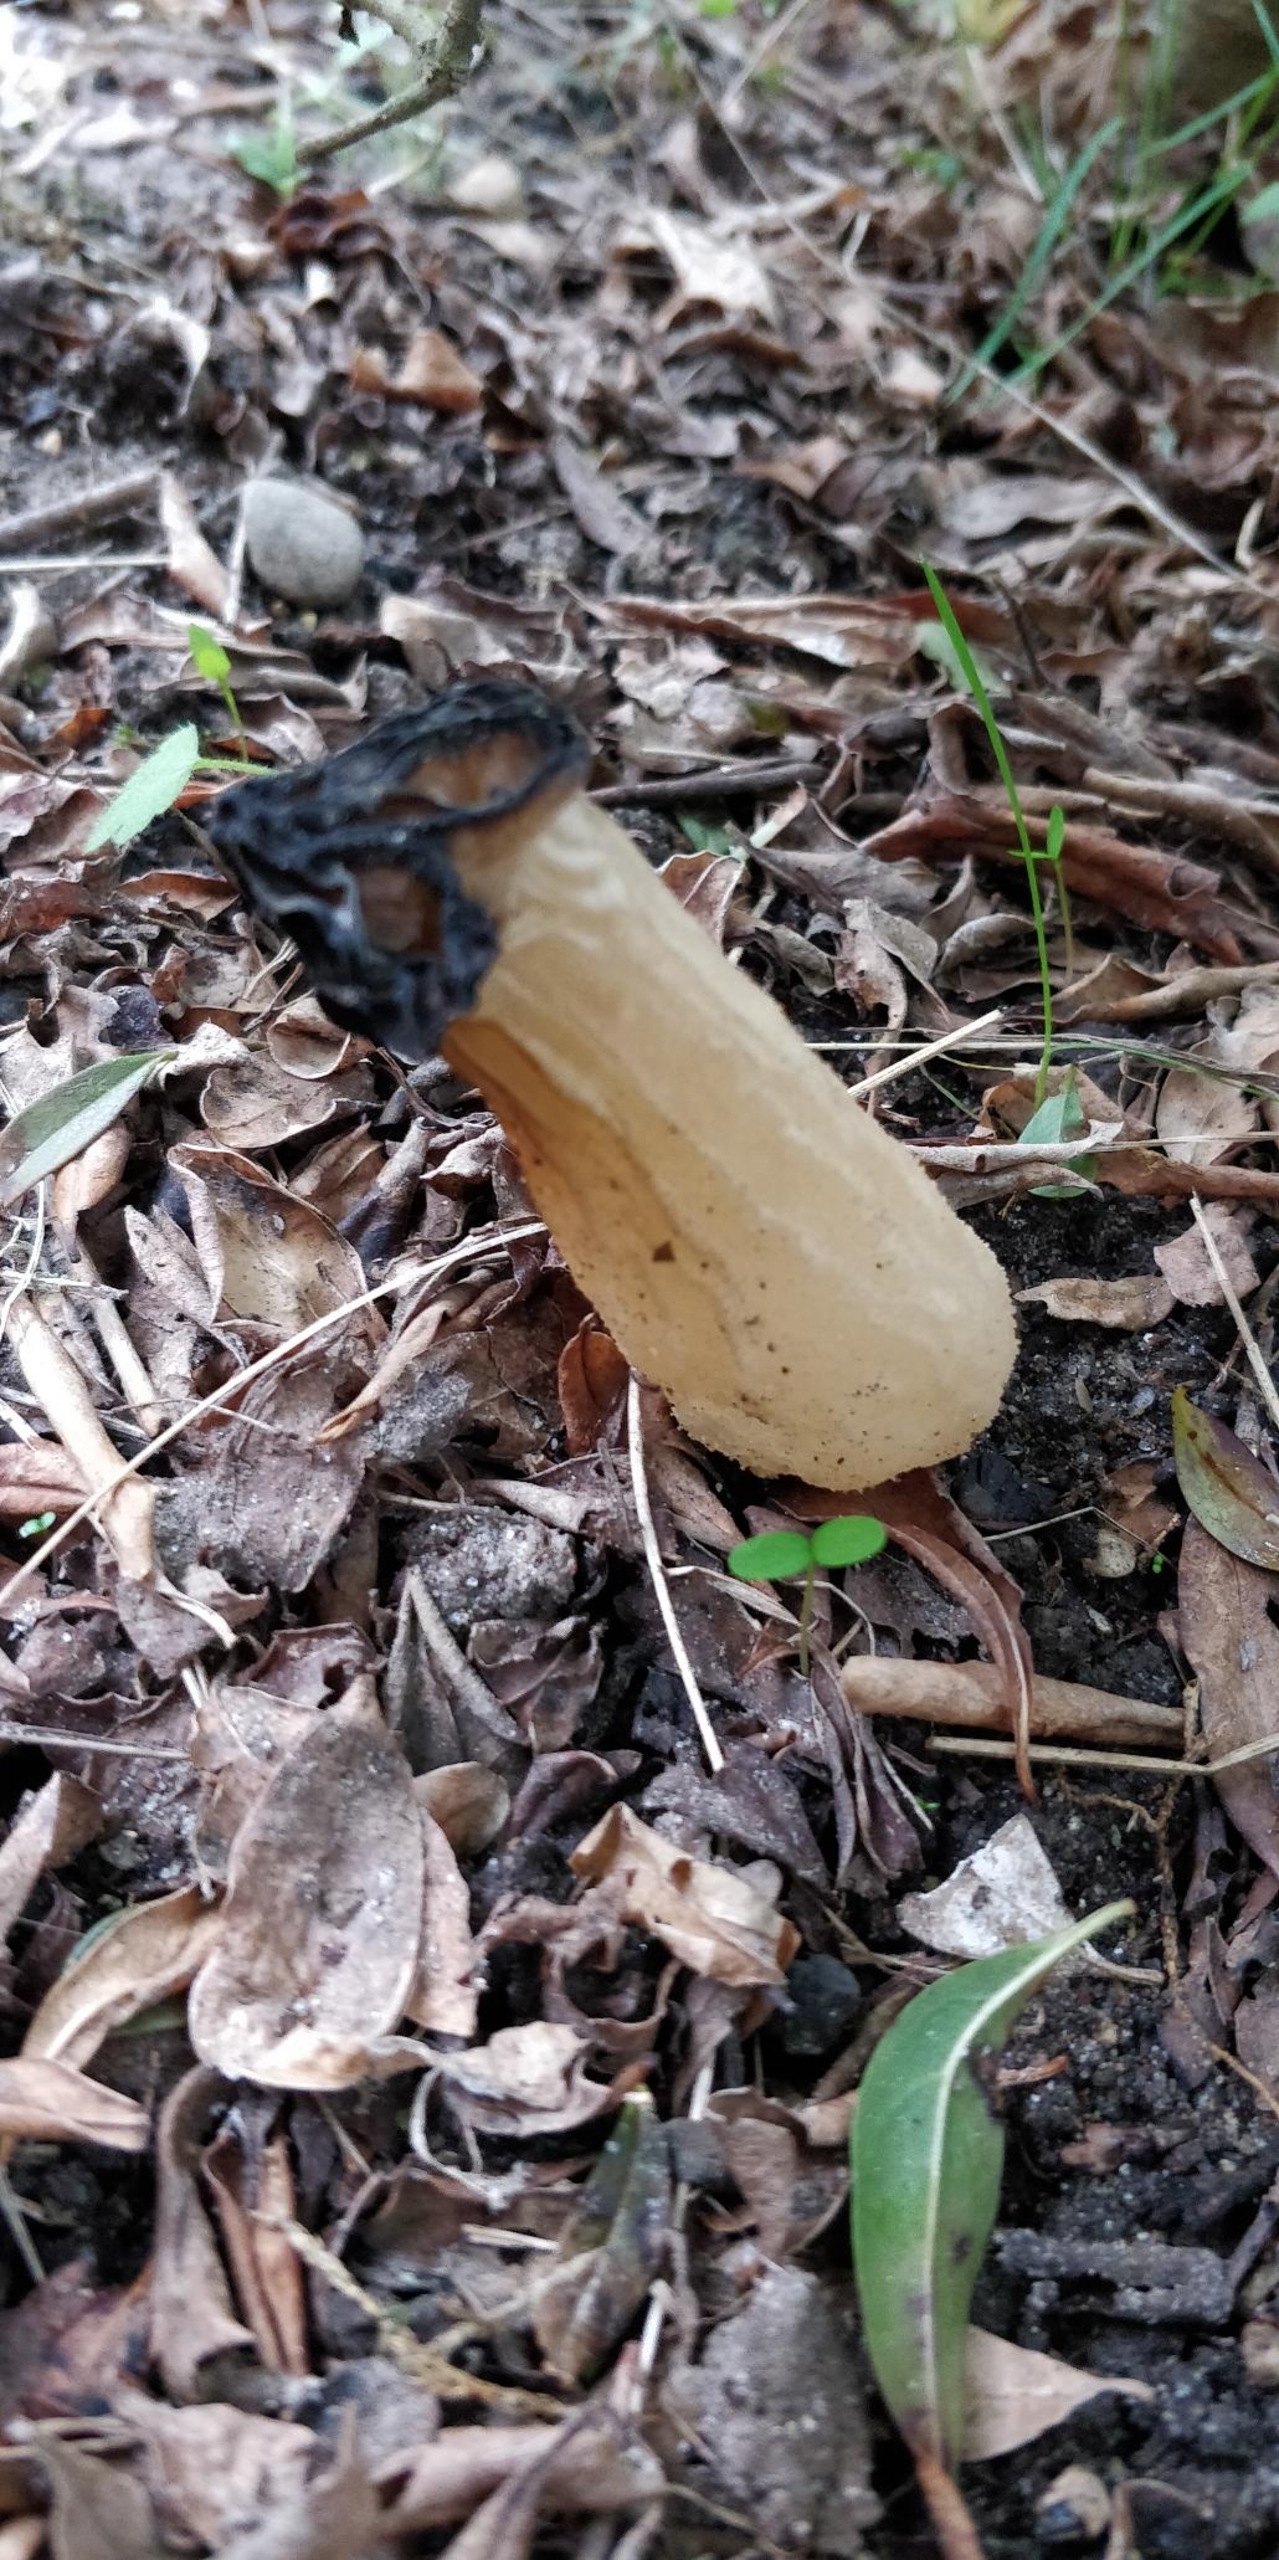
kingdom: Fungi
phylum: Ascomycota
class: Pezizomycetes
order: Pezizales
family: Morchellaceae
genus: Morchella
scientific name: Morchella semilibera
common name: Hætte-morkel
